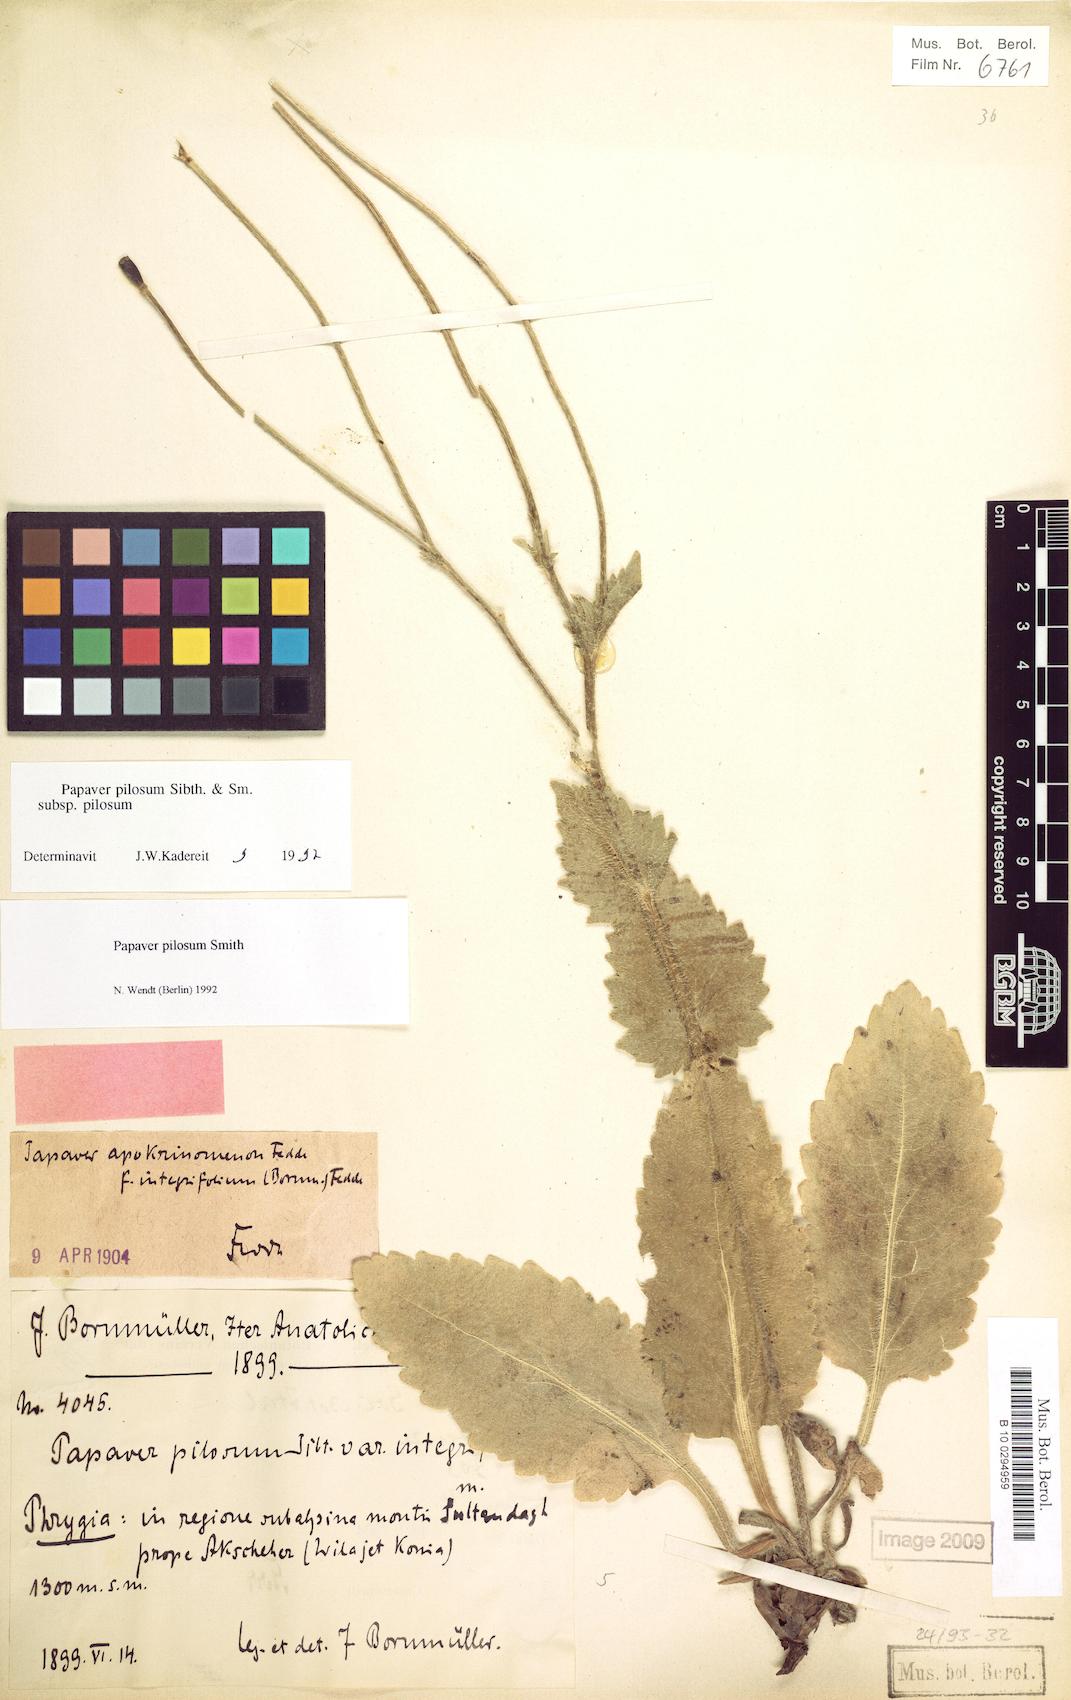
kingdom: Plantae
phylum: Tracheophyta
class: Magnoliopsida
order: Ranunculales
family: Papaveraceae
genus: Papaver
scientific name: Papaver pilosum
